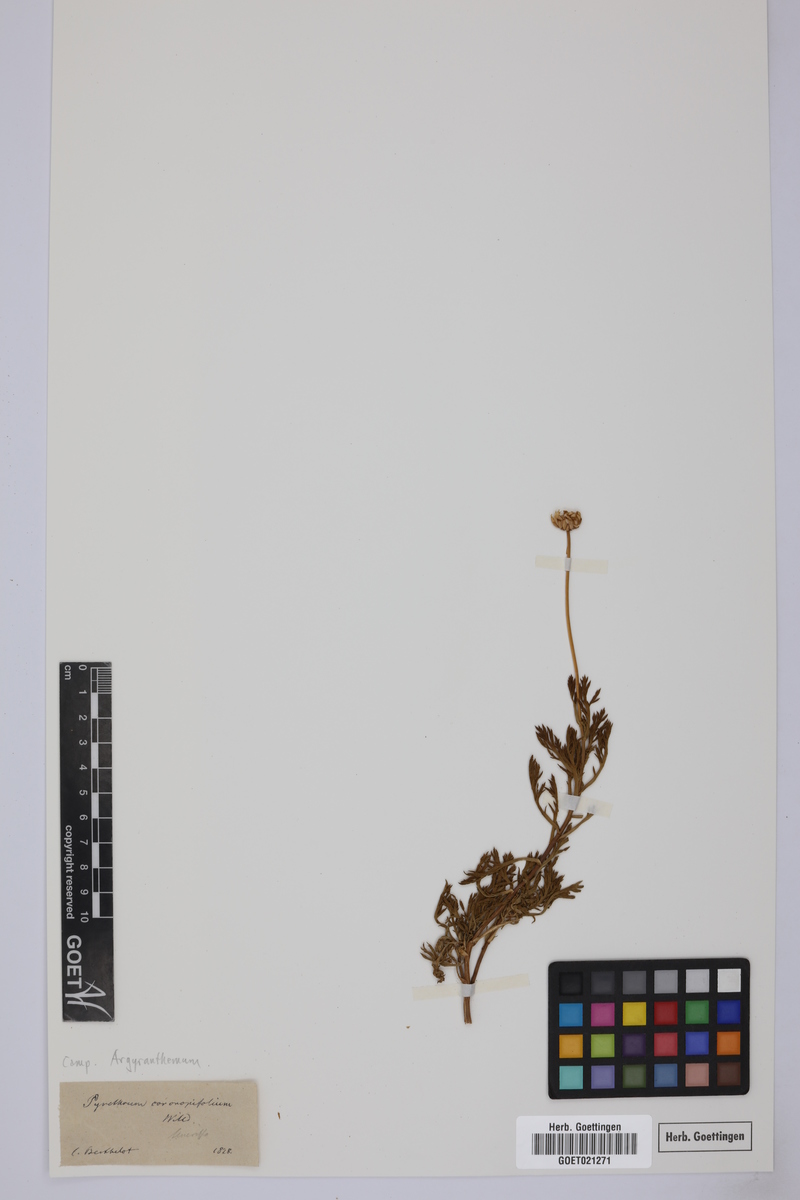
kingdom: Plantae
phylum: Tracheophyta
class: Magnoliopsida
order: Asterales
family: Asteraceae
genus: Argyranthemum
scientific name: Argyranthemum
